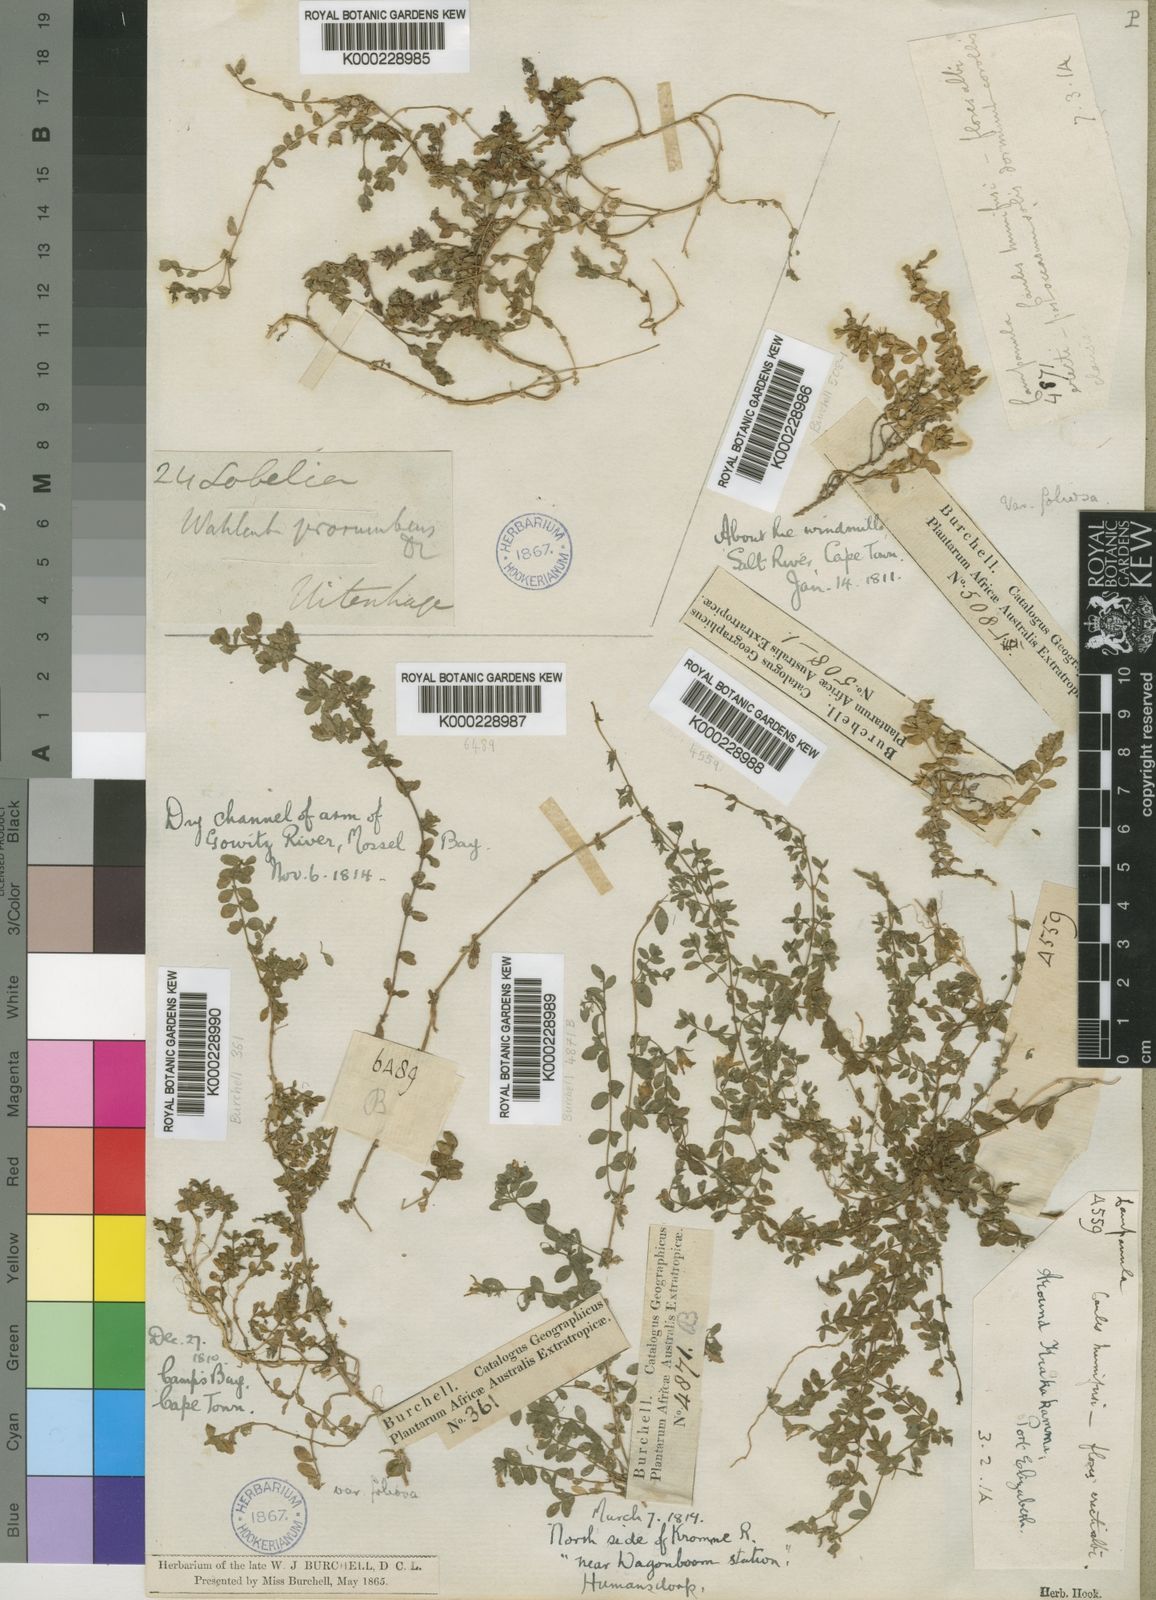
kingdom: Plantae
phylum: Tracheophyta
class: Magnoliopsida
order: Asterales
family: Campanulaceae
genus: Wahlenbergia
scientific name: Wahlenbergia procumbens
